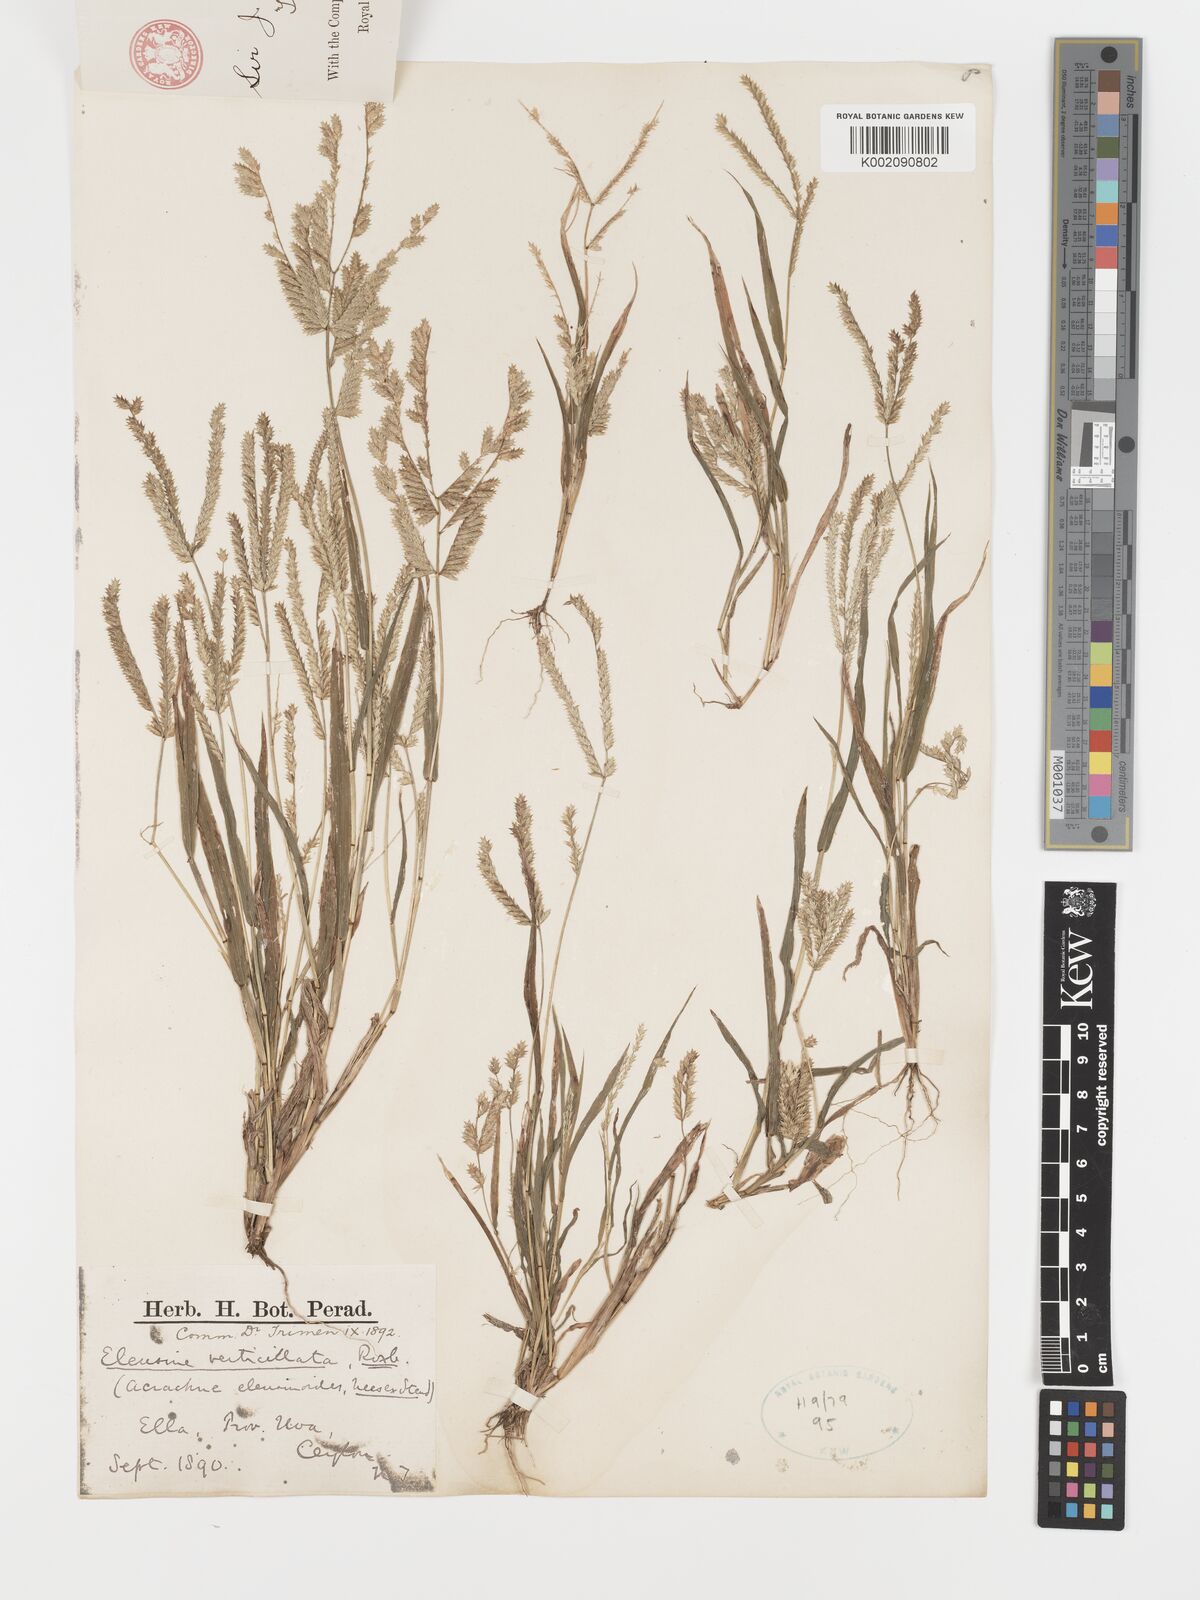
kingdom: Plantae
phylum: Tracheophyta
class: Liliopsida
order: Poales
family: Poaceae
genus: Acrachne
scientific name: Acrachne racemosa
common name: Goosegrass
